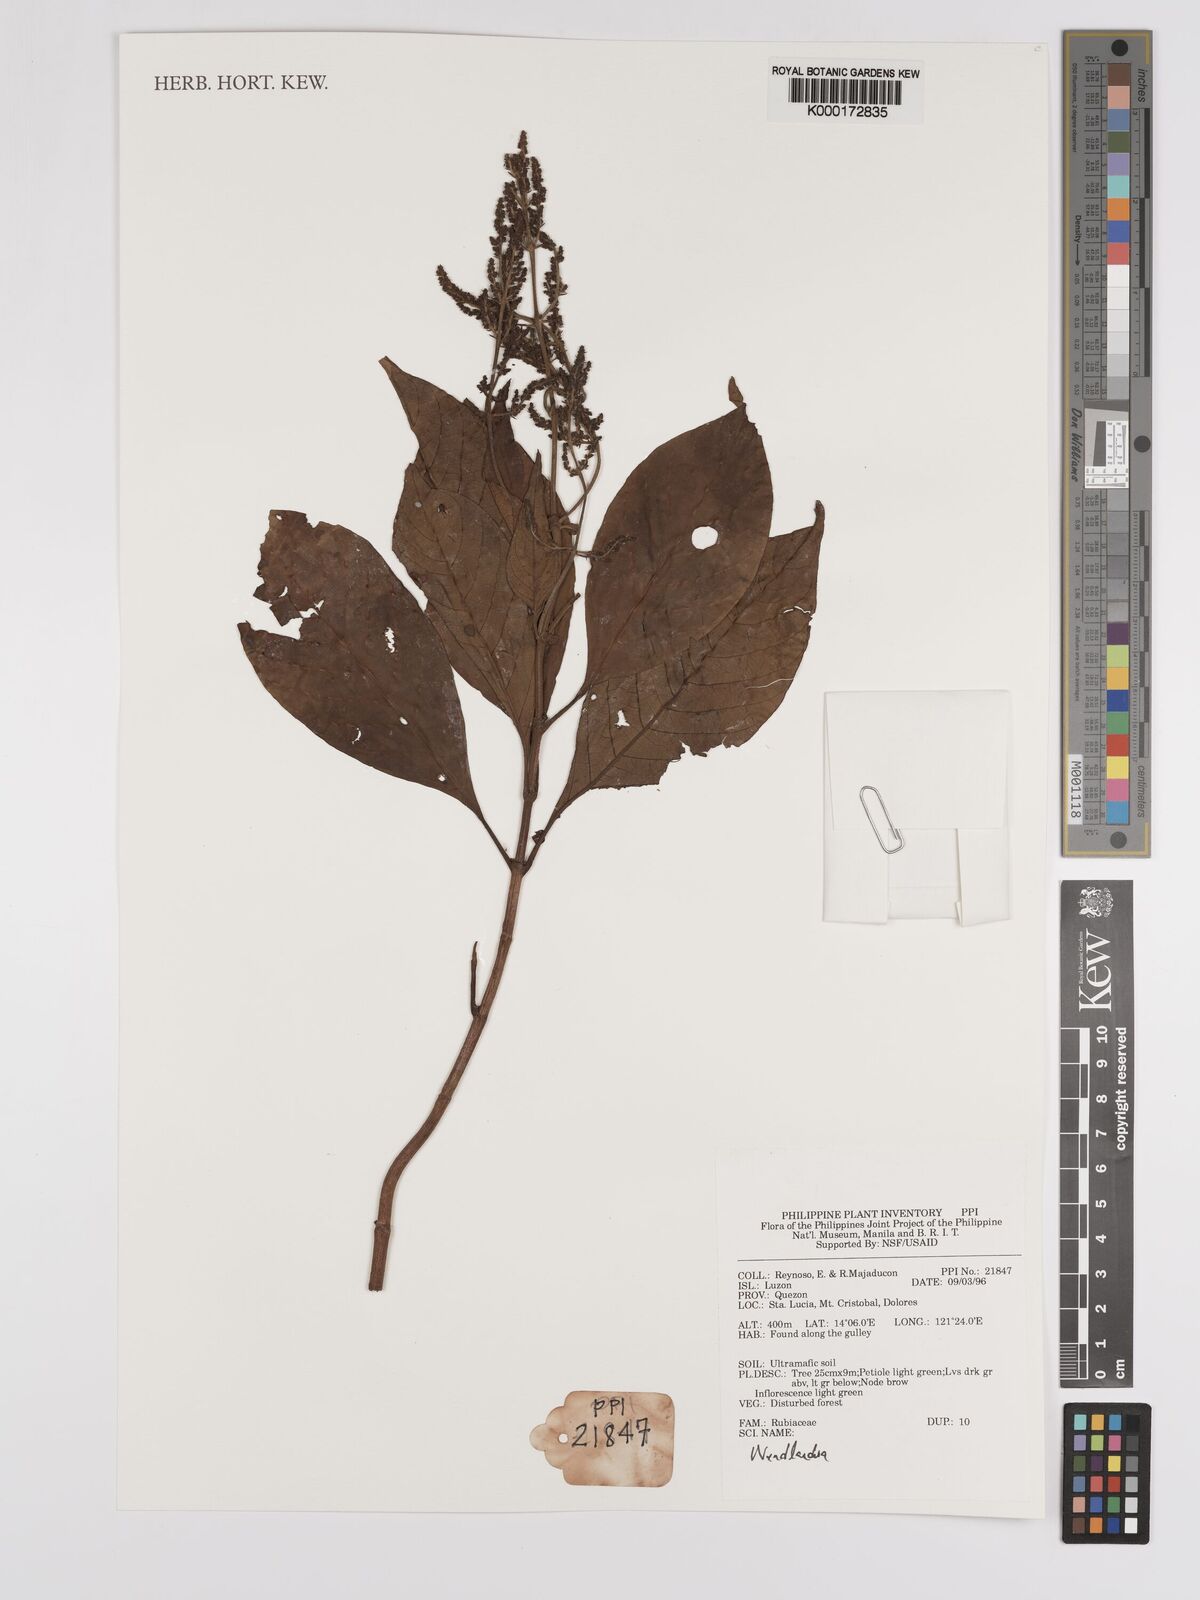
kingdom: Plantae
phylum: Tracheophyta
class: Magnoliopsida
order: Gentianales
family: Rubiaceae
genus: Wendlandia
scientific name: Wendlandia
